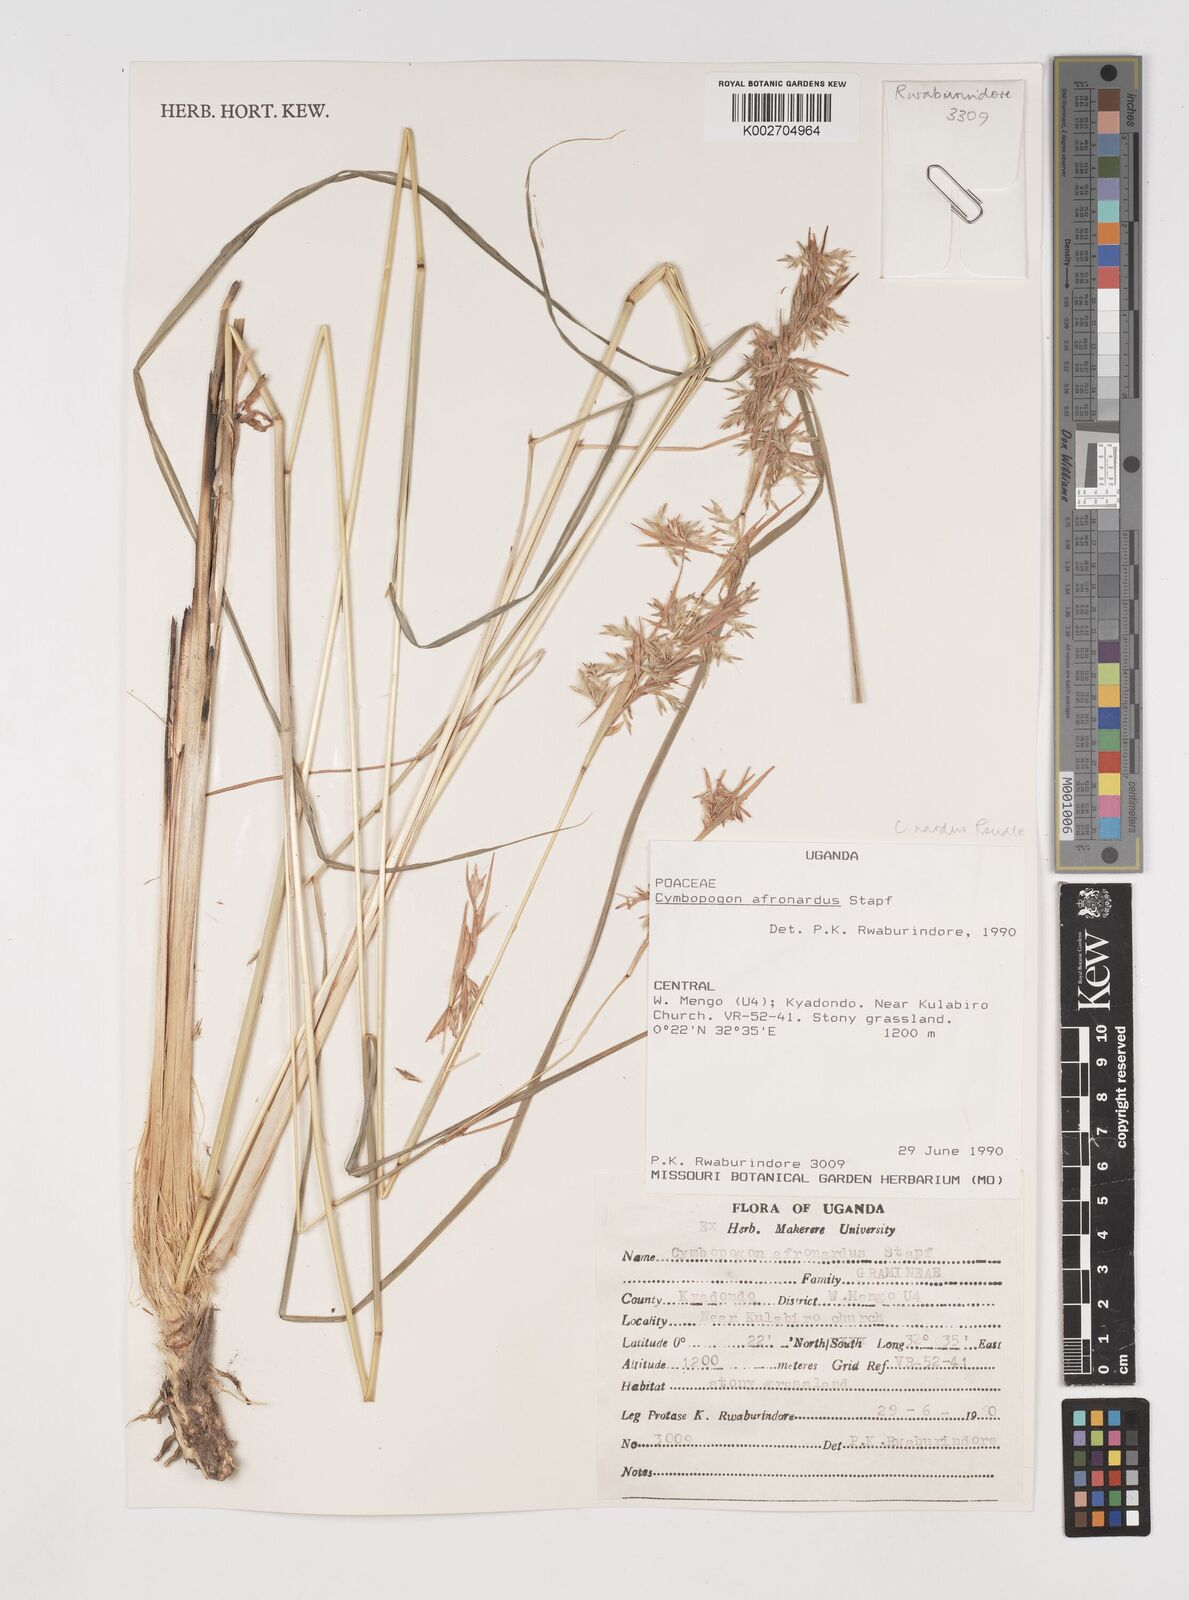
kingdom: Plantae
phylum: Tracheophyta
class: Liliopsida
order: Poales
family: Poaceae
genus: Cymbopogon
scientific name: Cymbopogon nardus
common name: Giant turpentine grass
